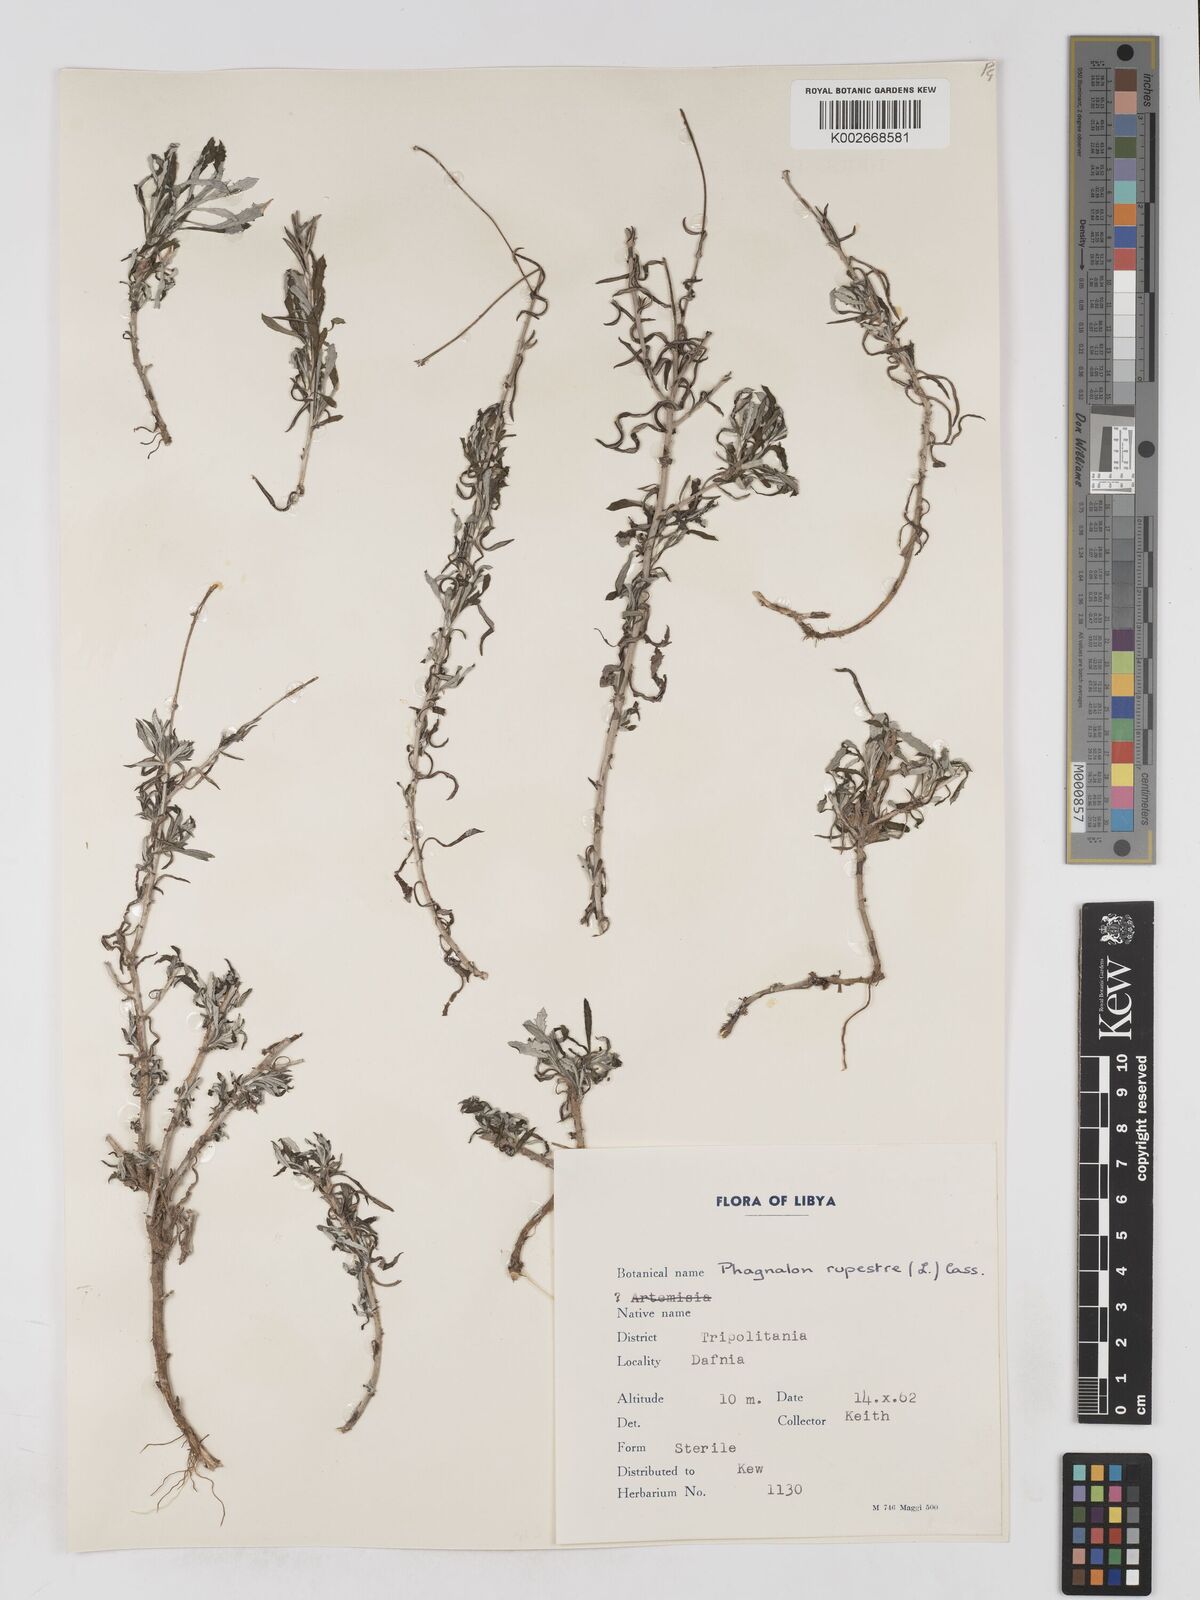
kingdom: Plantae
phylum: Tracheophyta
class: Magnoliopsida
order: Asterales
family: Asteraceae
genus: Phagnalon
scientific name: Phagnalon rupestre
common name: Rock phagnalon
